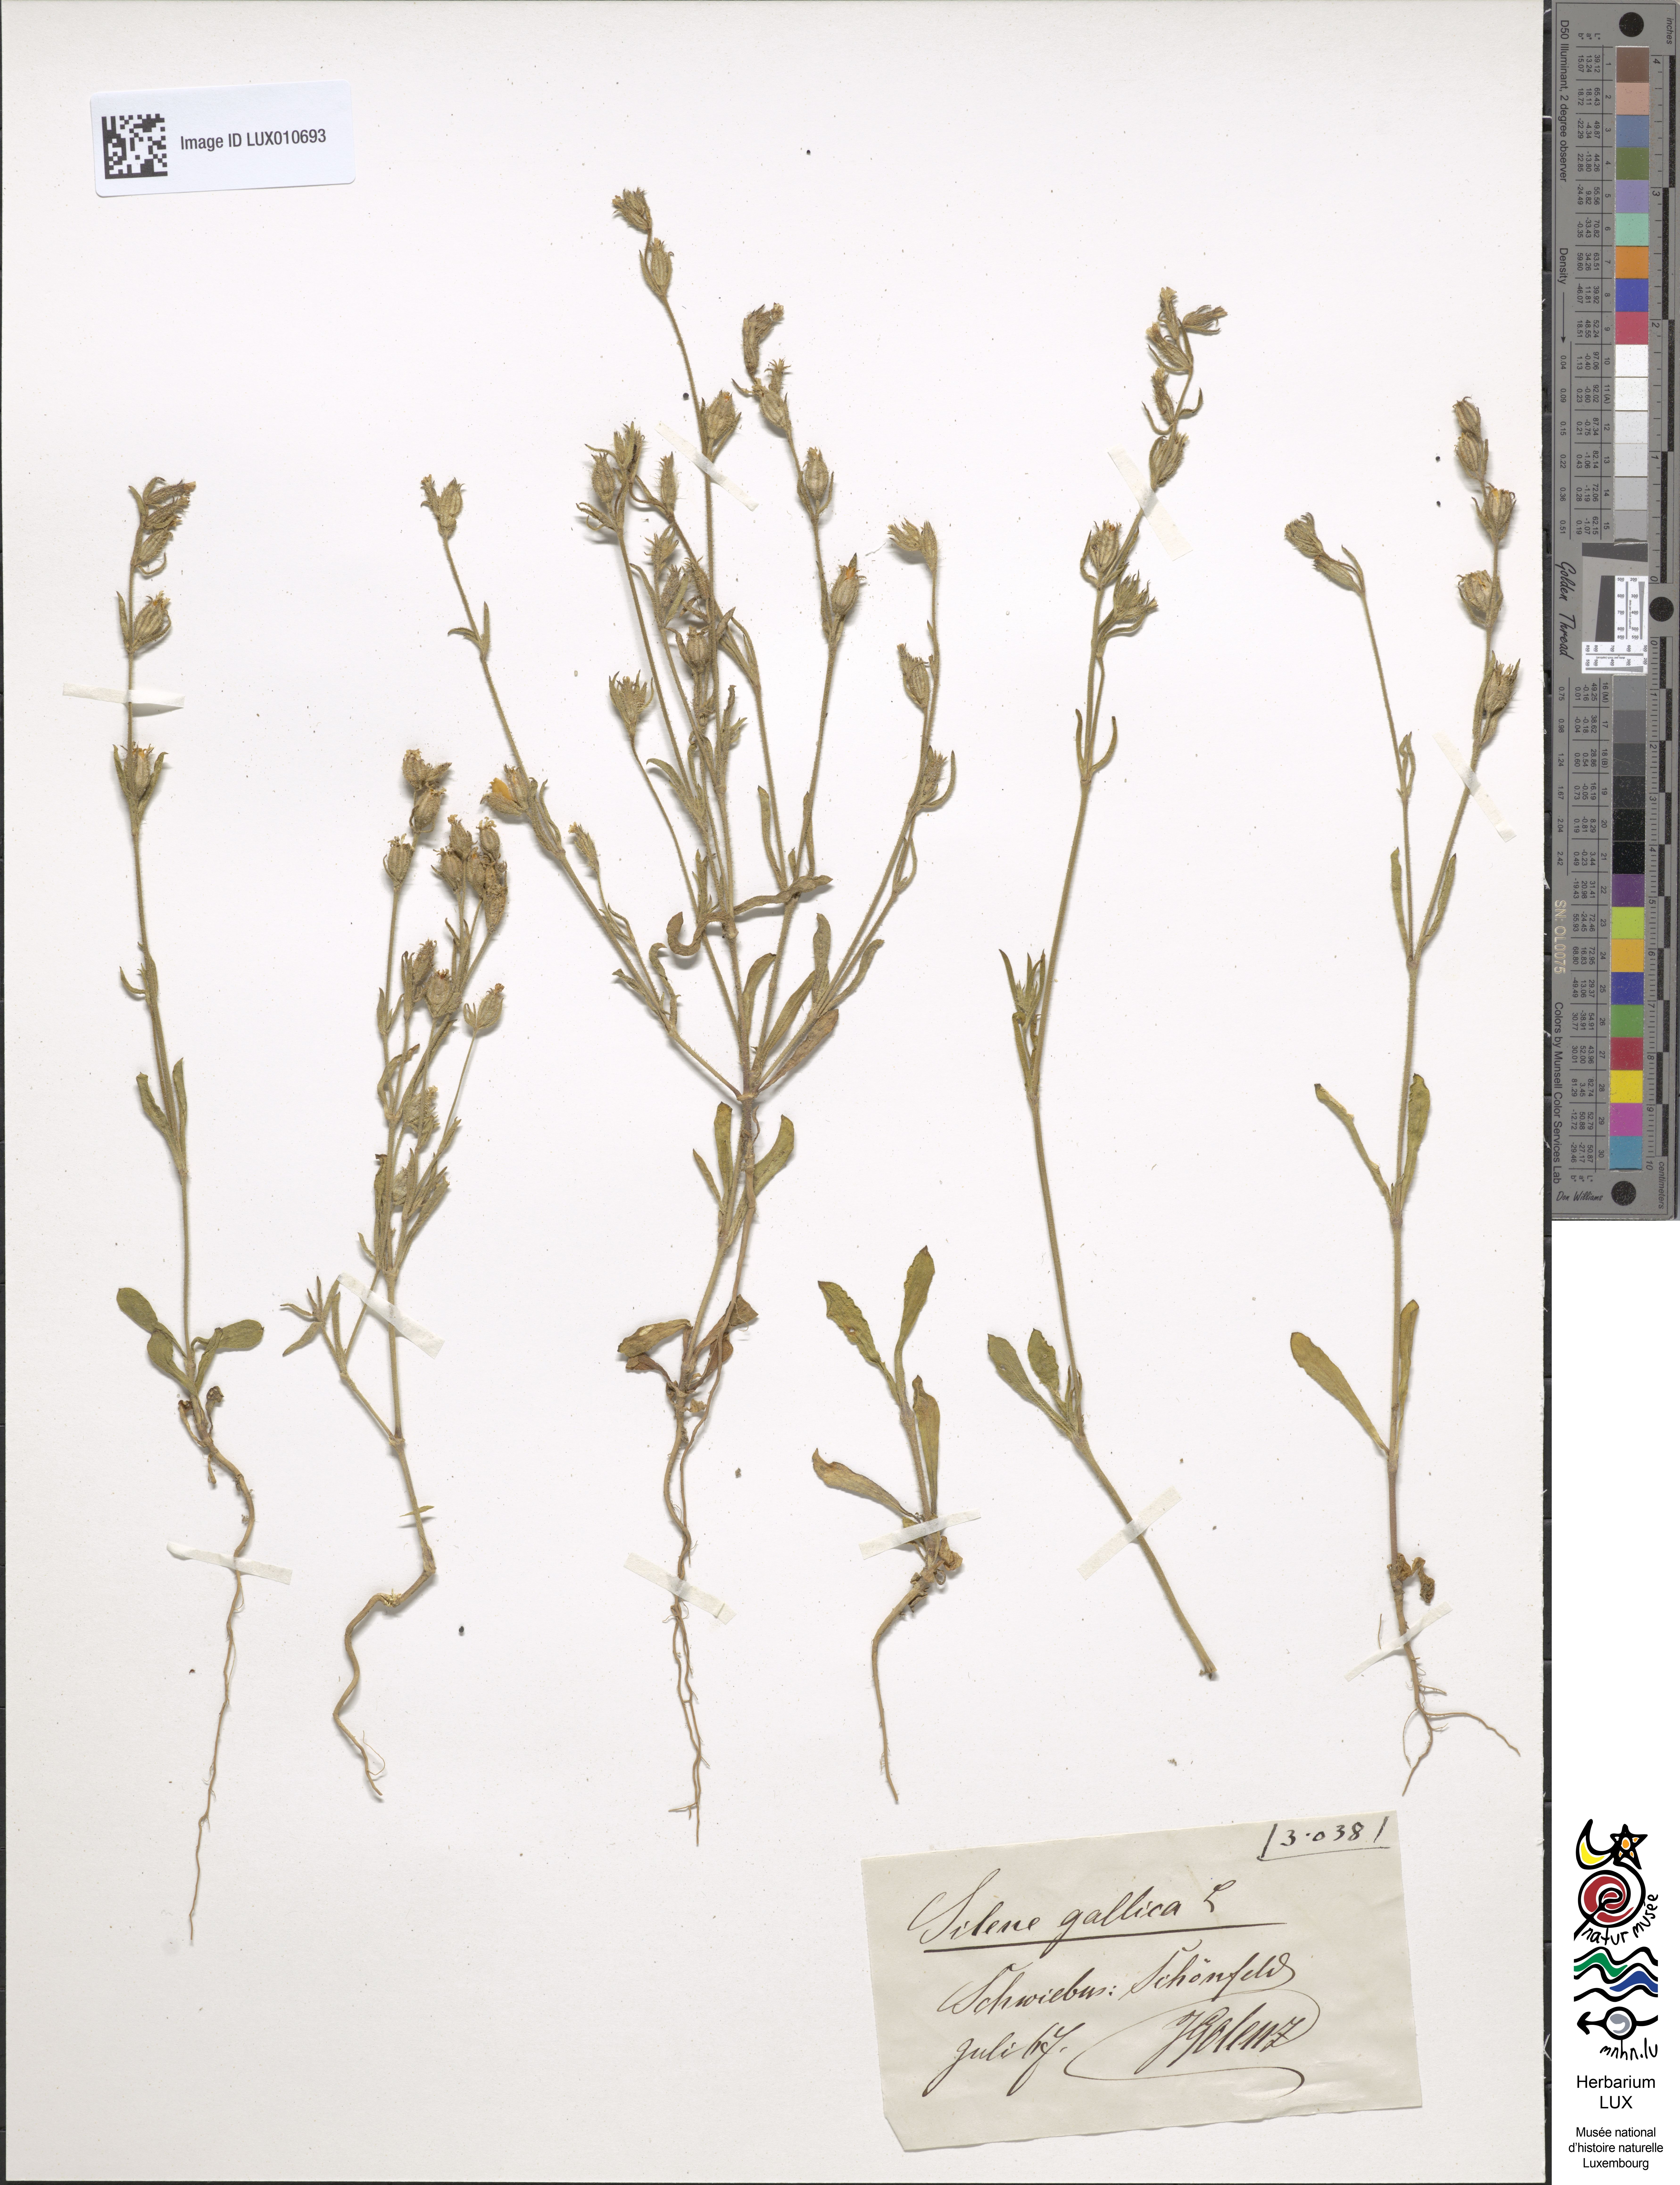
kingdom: Plantae
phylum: Tracheophyta
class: Magnoliopsida
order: Caryophyllales
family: Caryophyllaceae
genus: Silene
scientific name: Silene gallica
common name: Small-flowered catchfly
